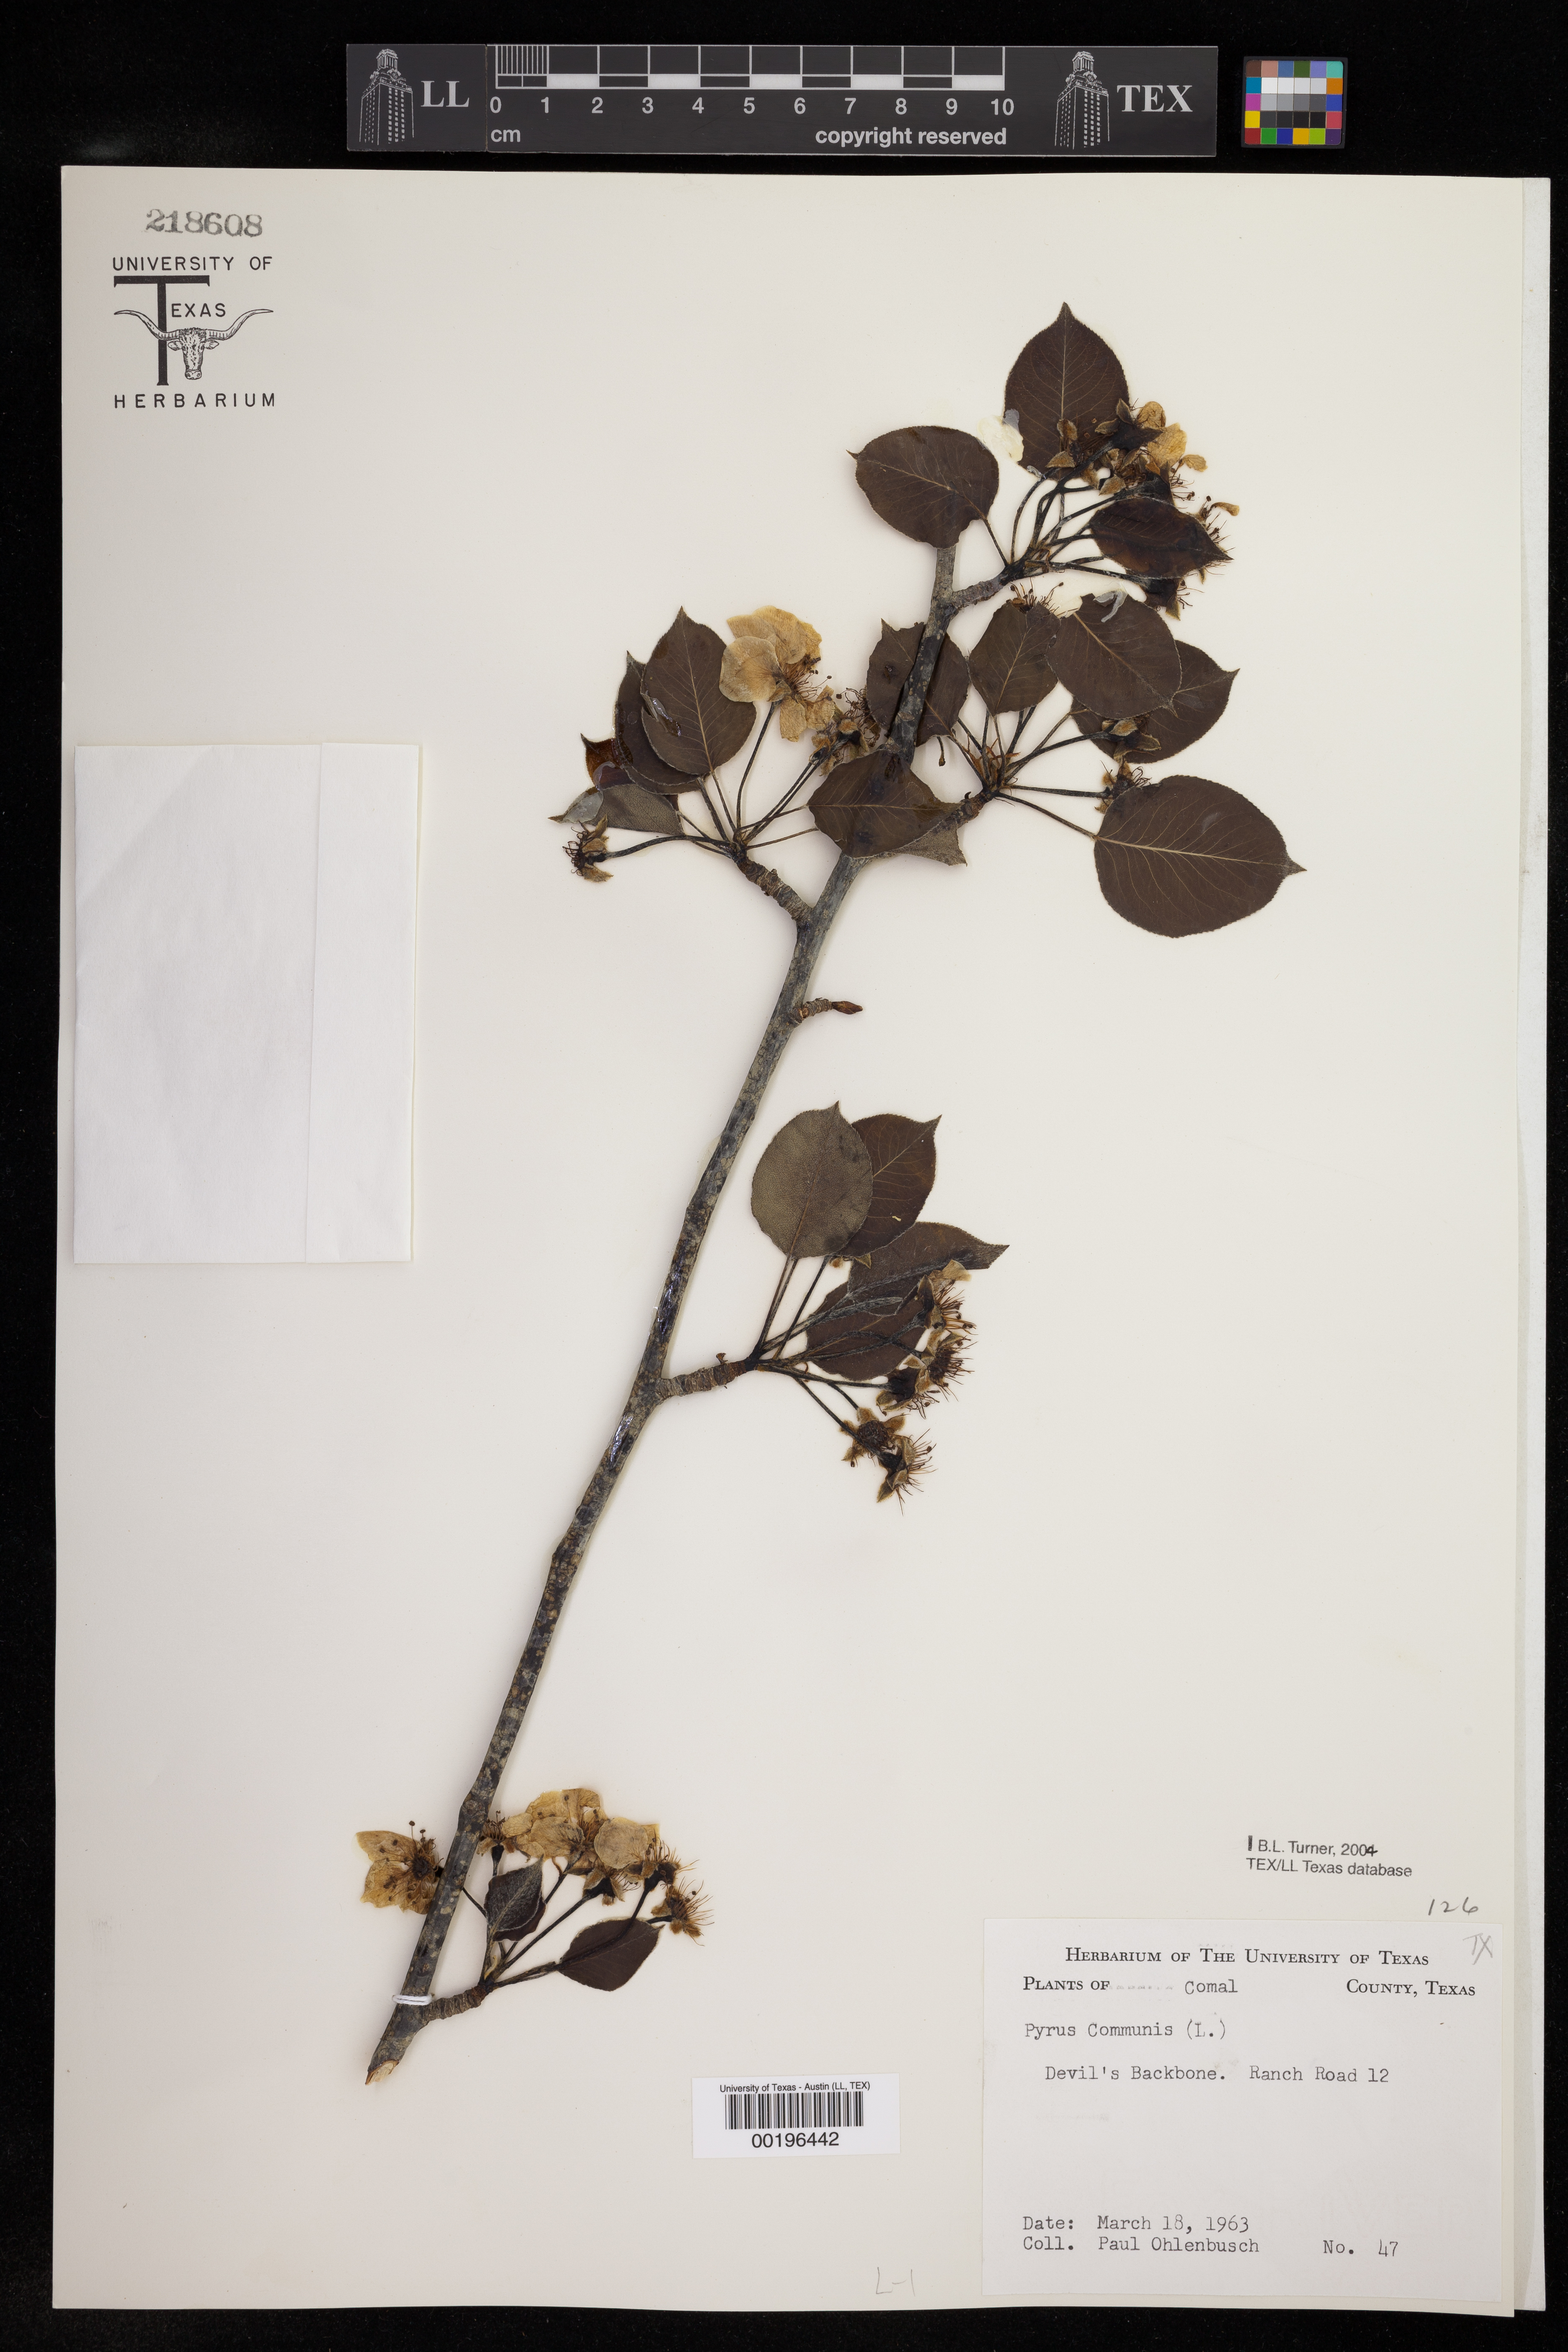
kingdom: Plantae
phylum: Tracheophyta
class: Magnoliopsida
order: Rosales
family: Rosaceae
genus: Pyrus
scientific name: Pyrus communis
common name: Pear
